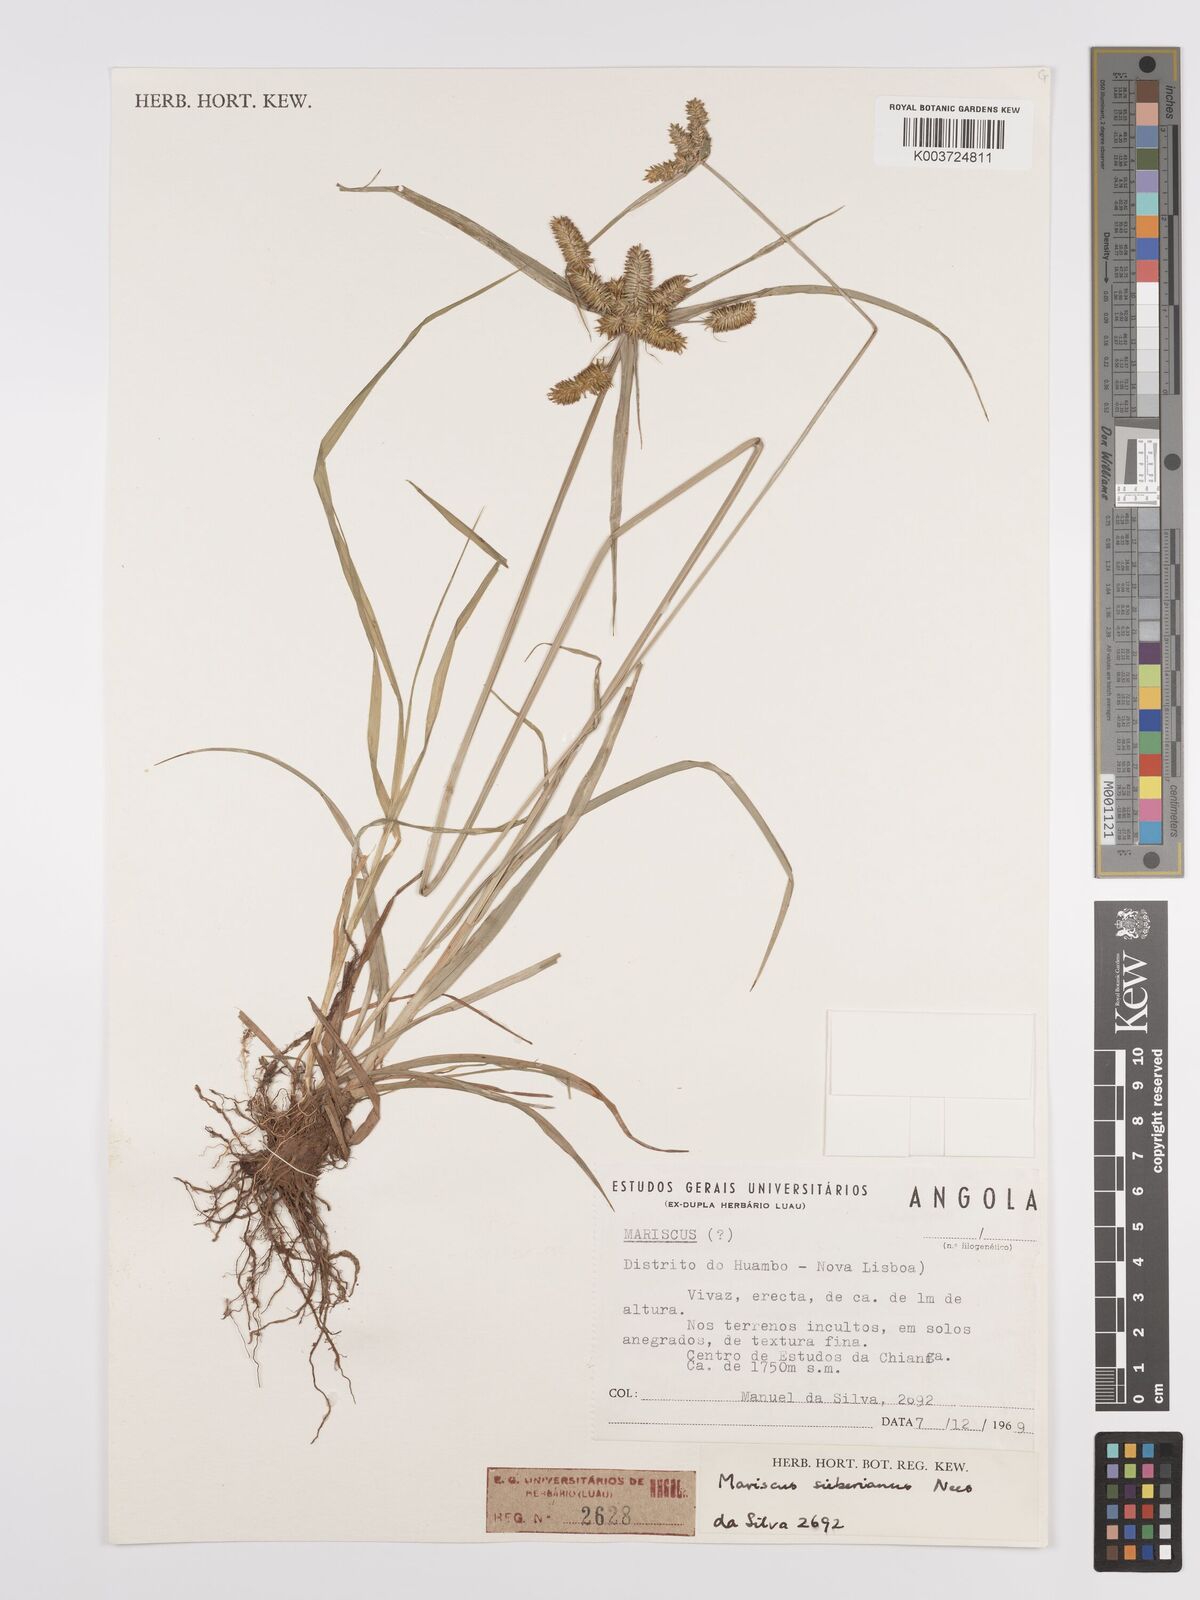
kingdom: Plantae
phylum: Tracheophyta
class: Liliopsida
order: Poales
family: Cyperaceae
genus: Cyperus
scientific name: Cyperus cyperoides
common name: Pacific island flat sedge
